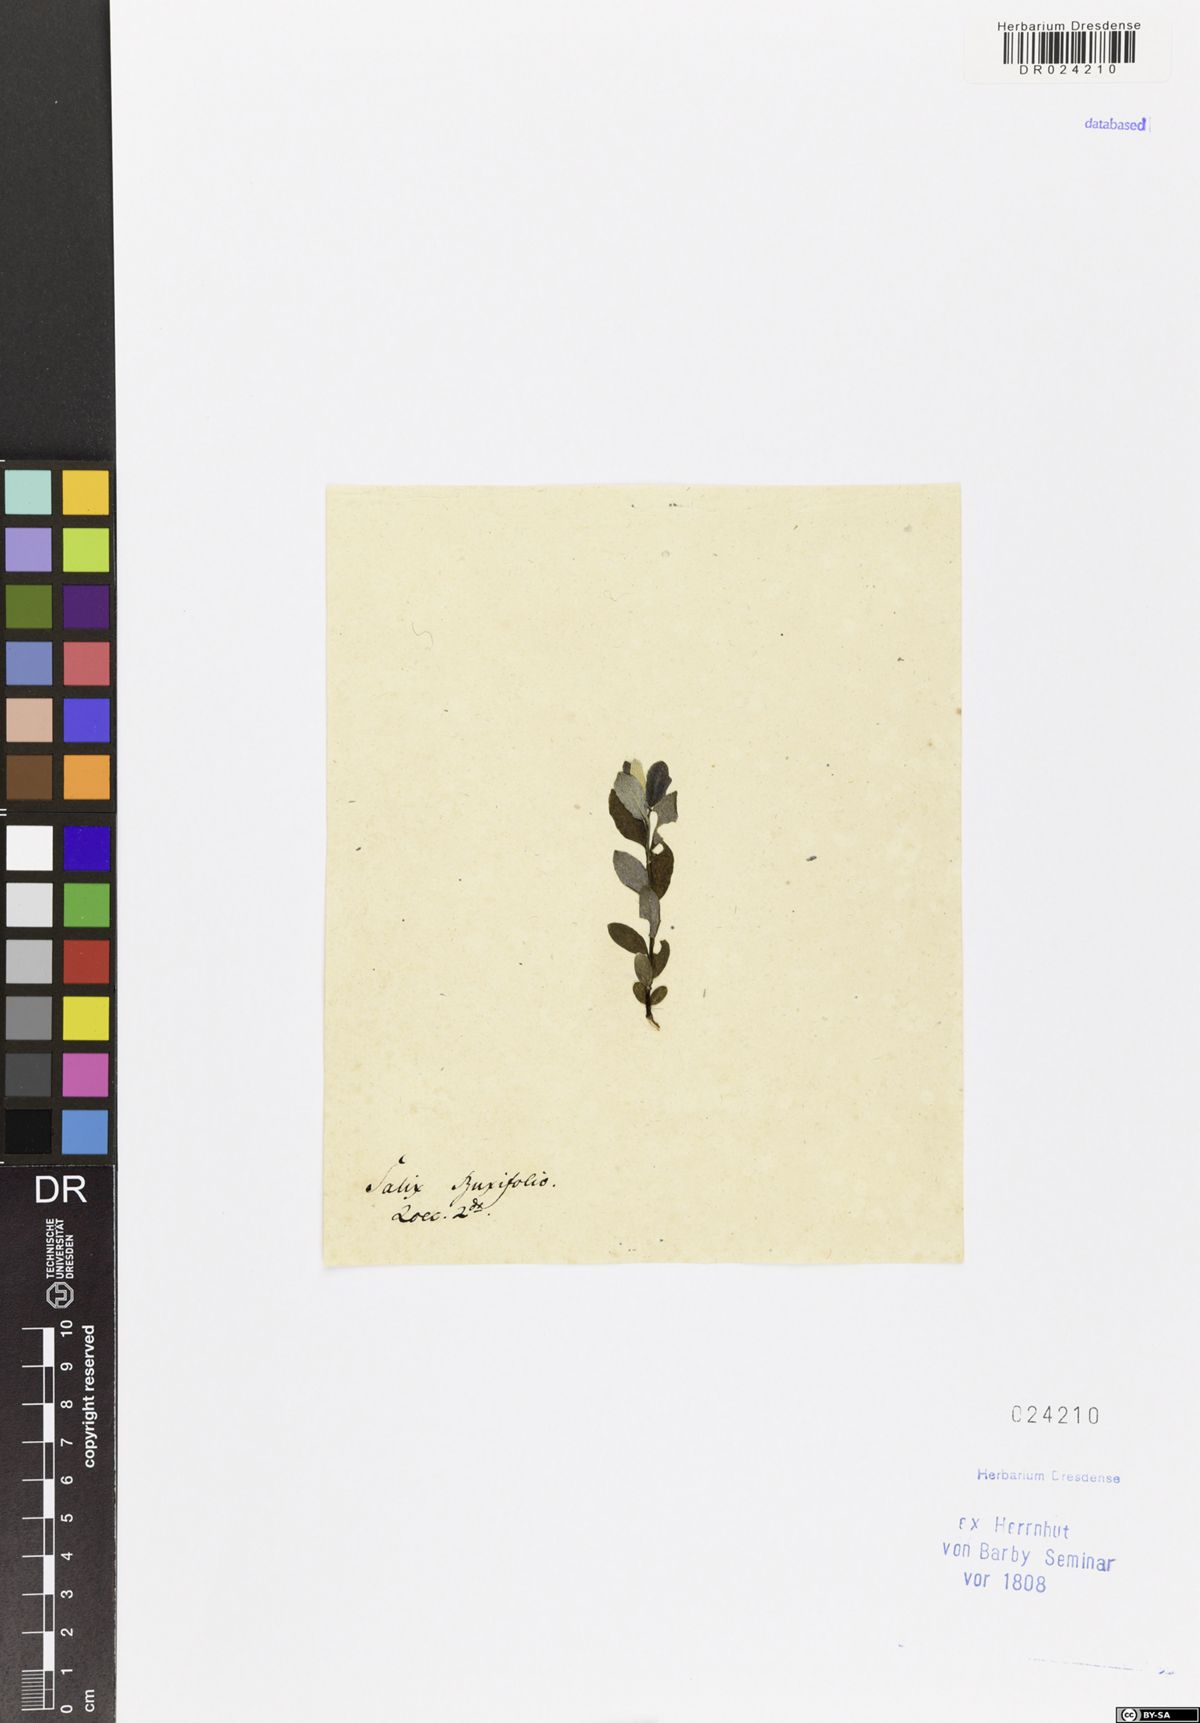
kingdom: Plantae
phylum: Tracheophyta
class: Magnoliopsida
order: Malpighiales
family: Salicaceae
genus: Salix
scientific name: Salix lapponum
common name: Downy willow
